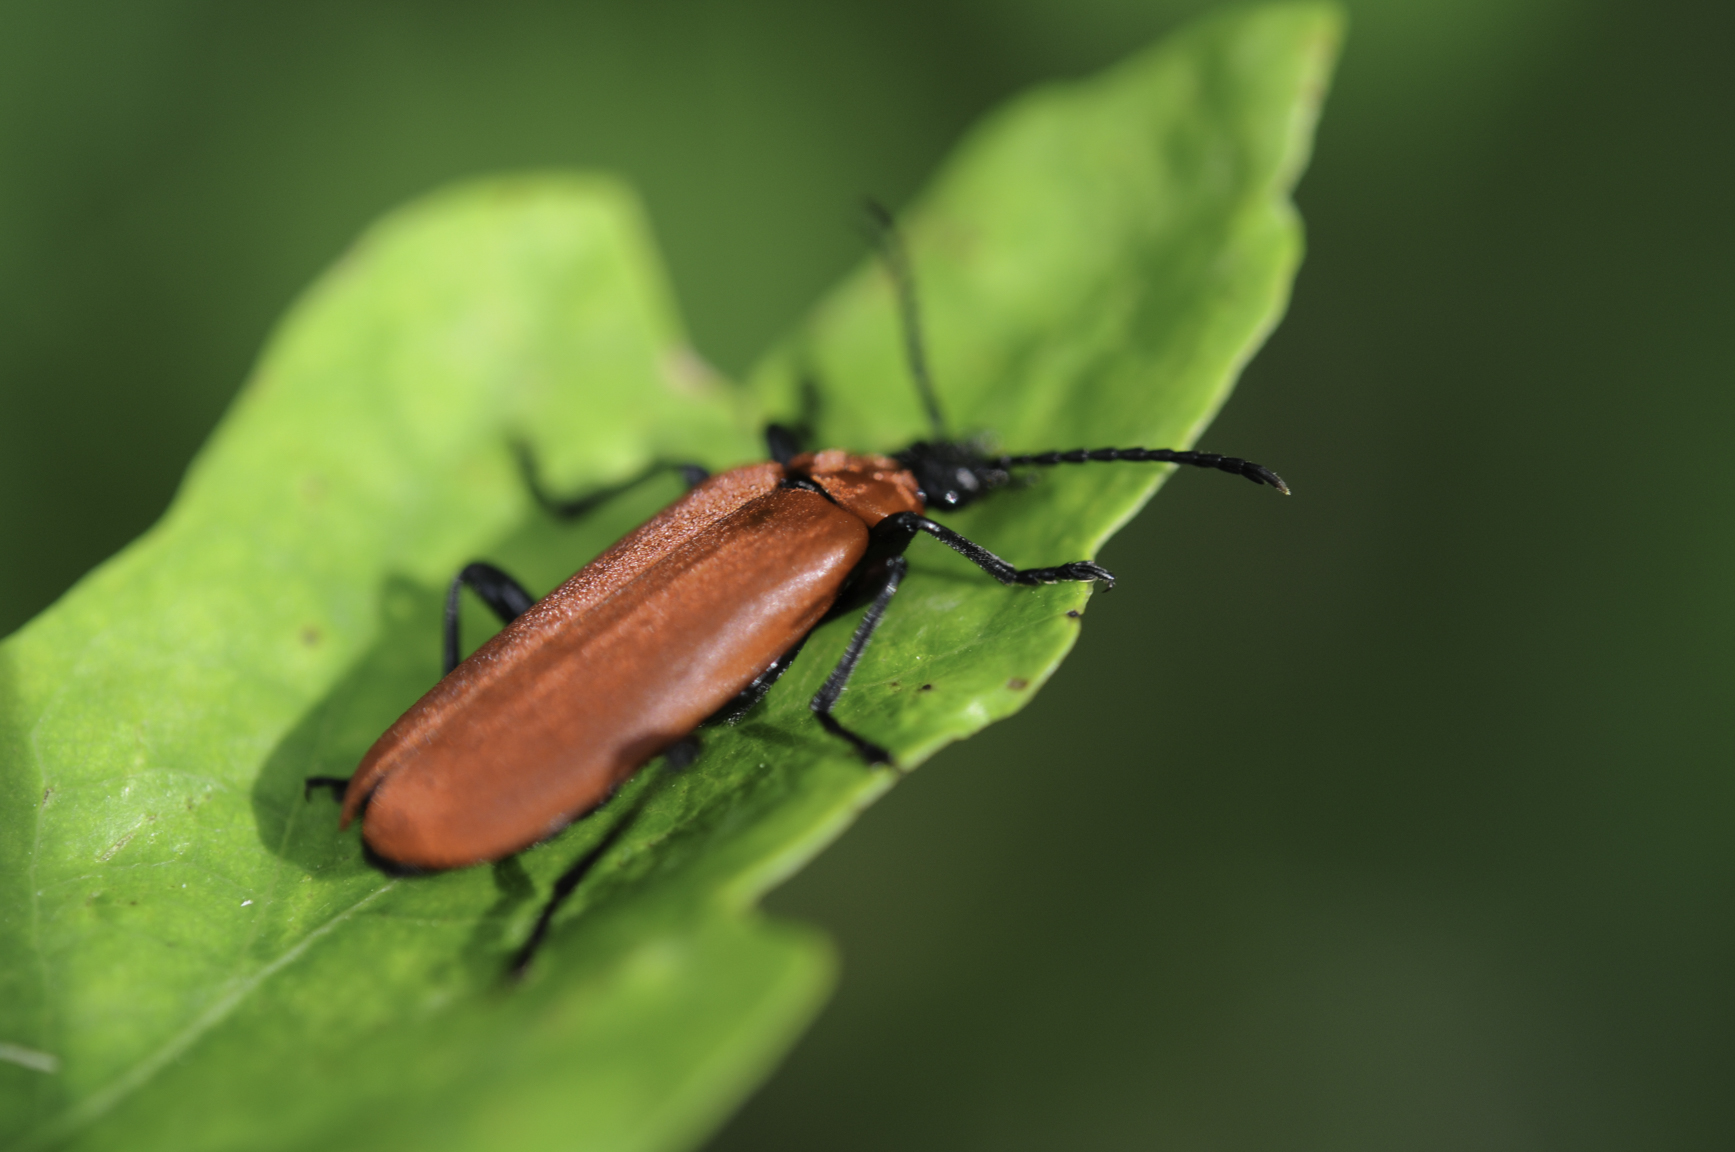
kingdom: Animalia
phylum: Arthropoda
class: Insecta
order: Coleoptera
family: Pyrochroidae
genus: Pyrochroa
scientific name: Pyrochroa coccinea
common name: Black-headed cardinal beetle
